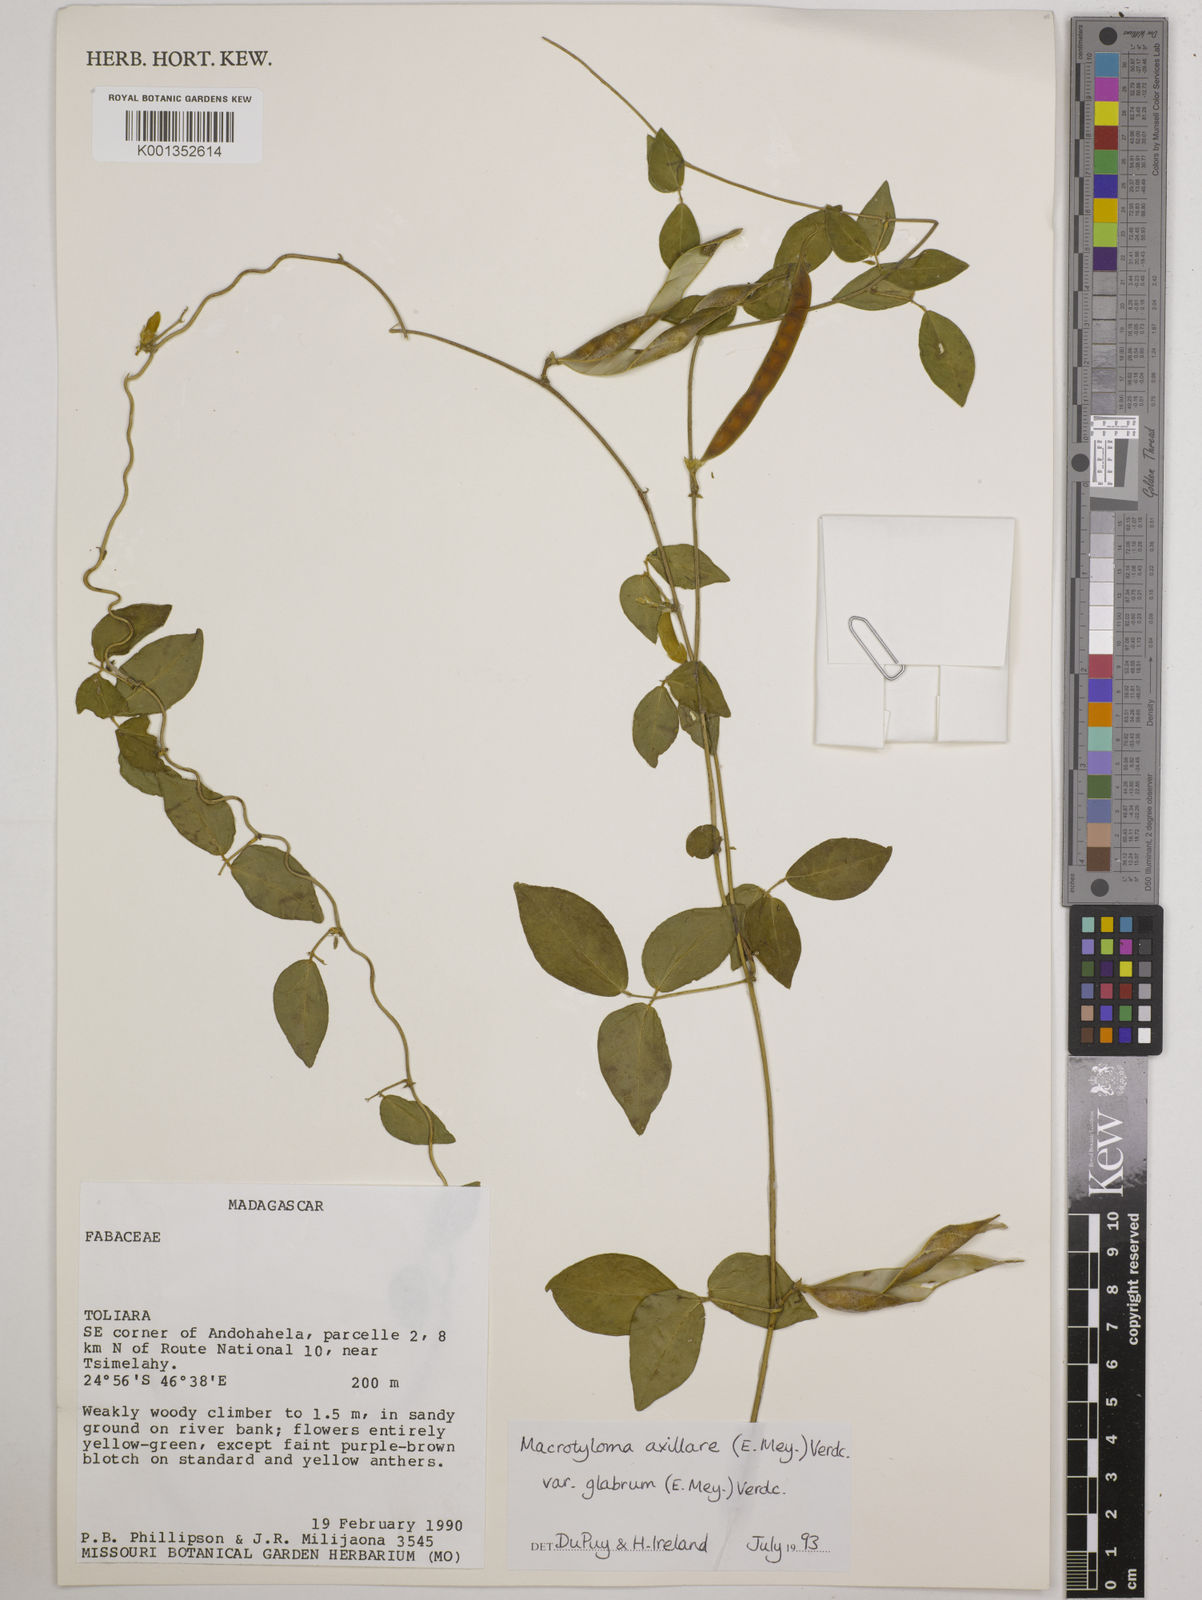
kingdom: Plantae
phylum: Tracheophyta
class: Magnoliopsida
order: Fabales
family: Fabaceae
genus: Macrotyloma
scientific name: Macrotyloma
